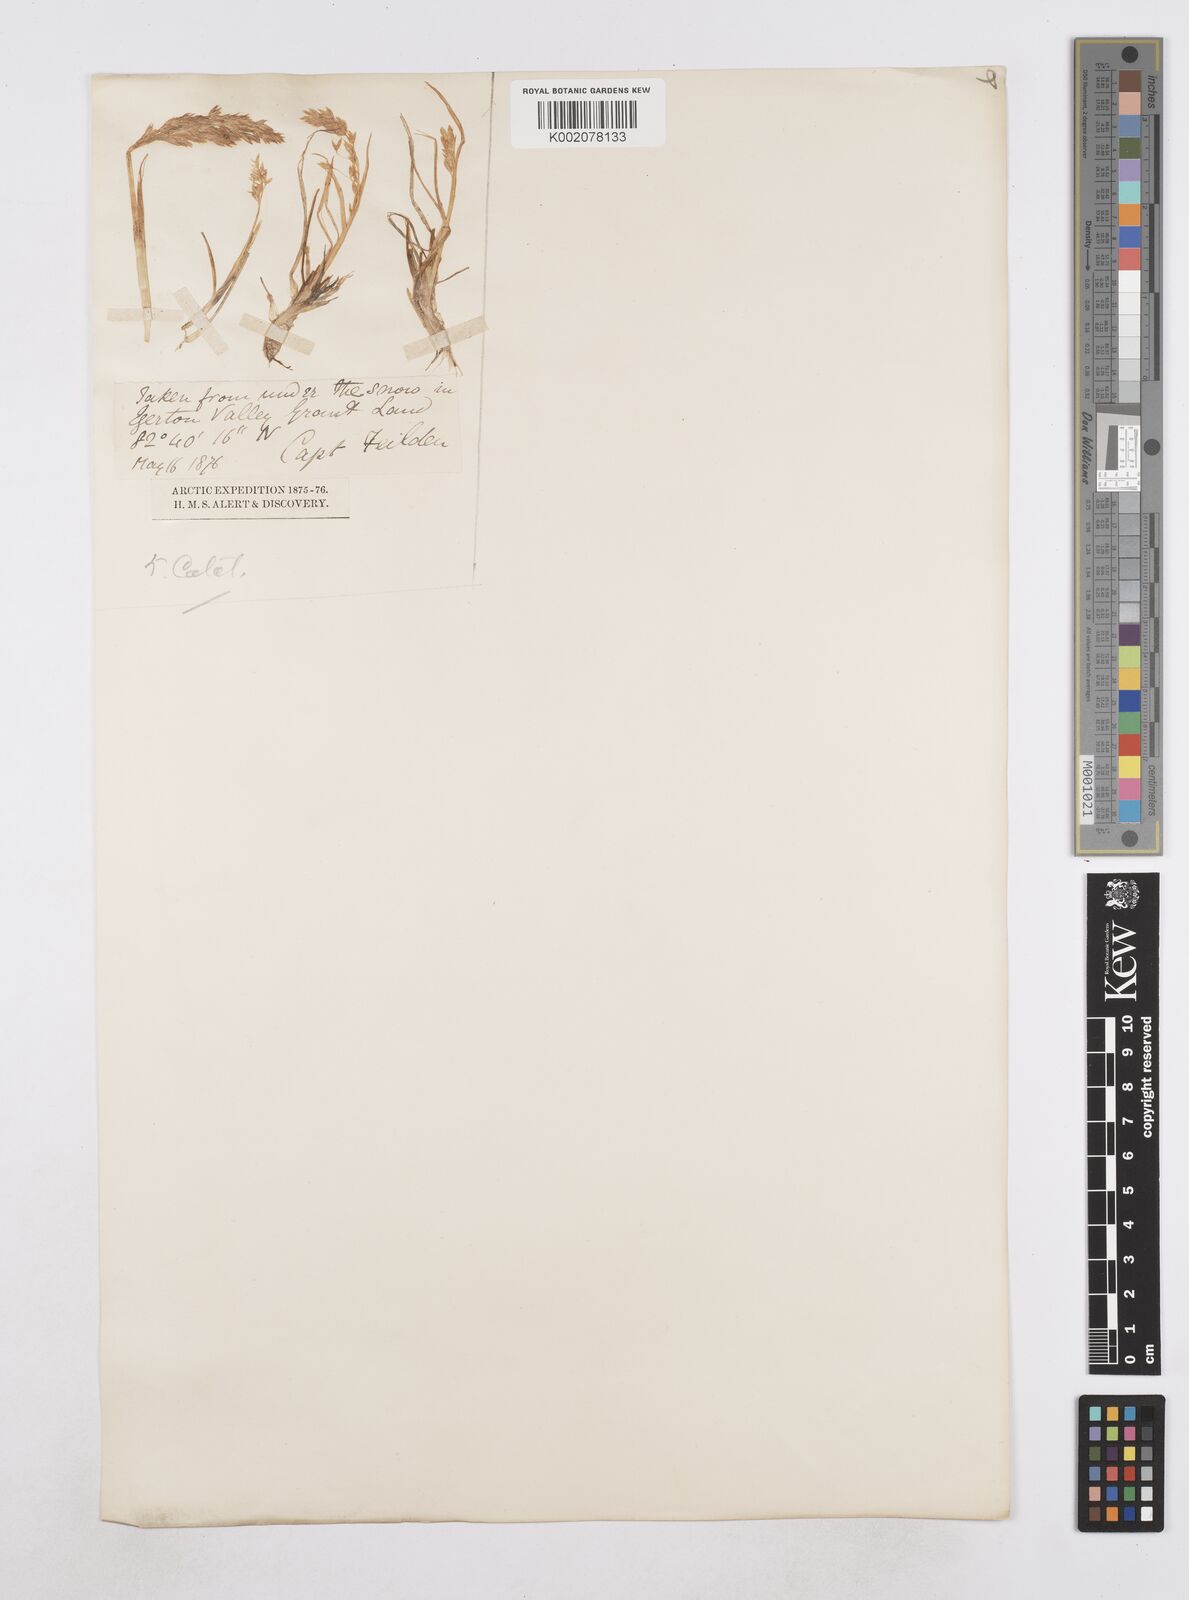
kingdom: Plantae
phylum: Tracheophyta
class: Liliopsida
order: Poales
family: Poaceae
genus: Poa
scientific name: Poa
